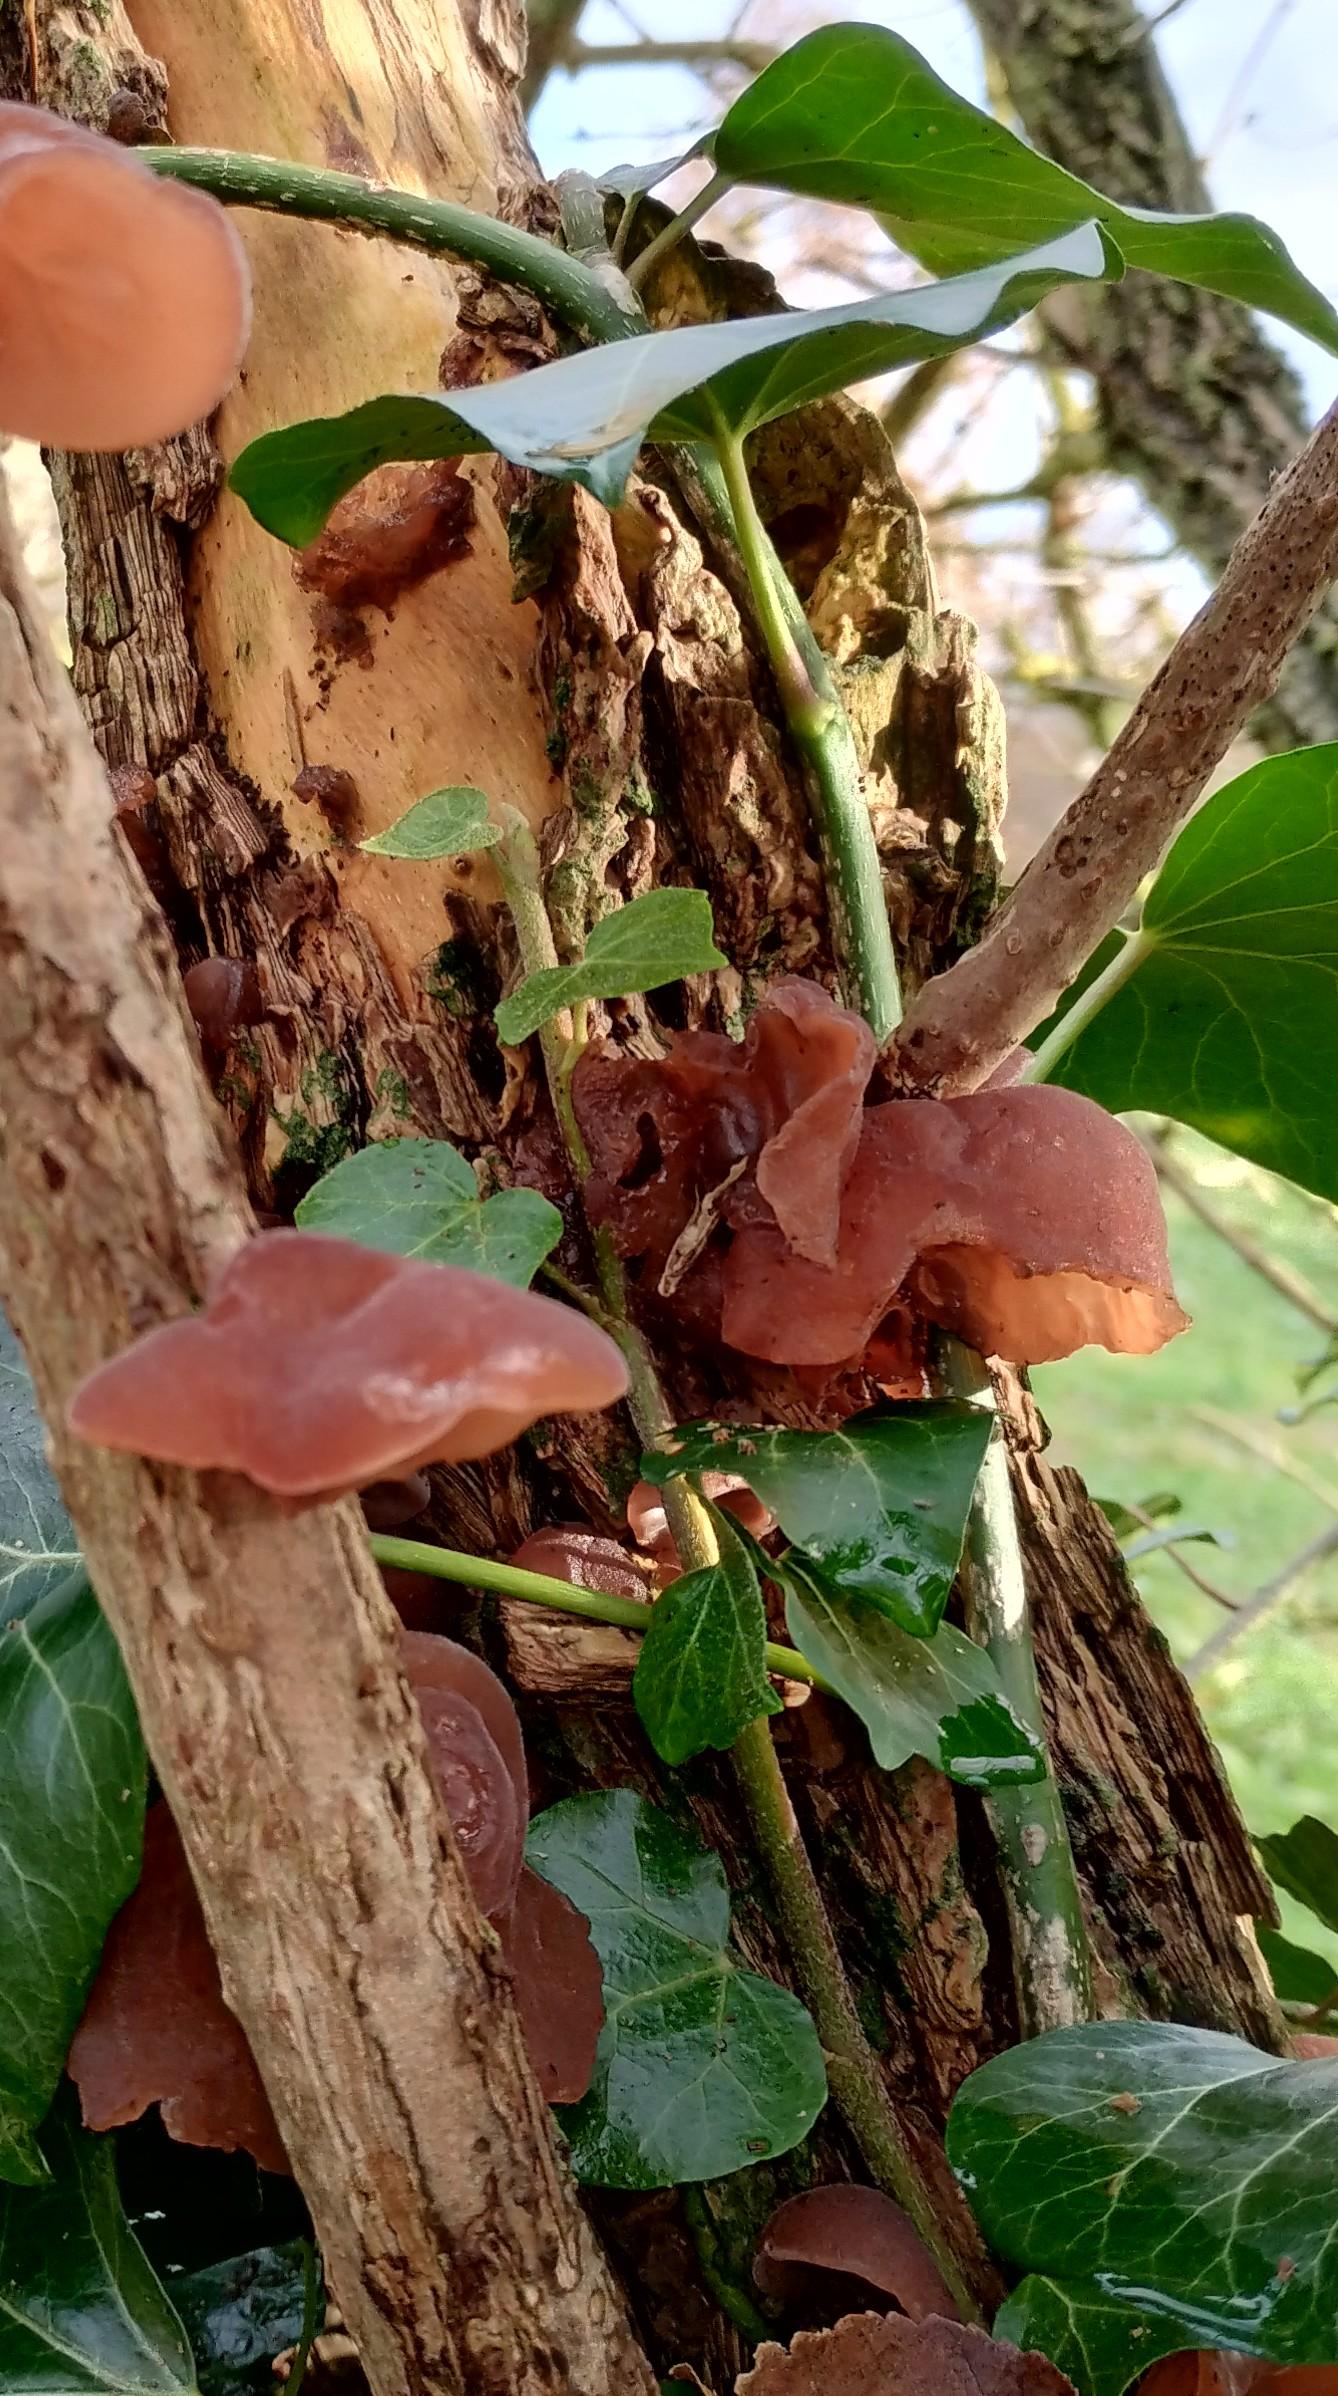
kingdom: Fungi
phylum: Basidiomycota
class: Agaricomycetes
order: Auriculariales
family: Auriculariaceae
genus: Auricularia
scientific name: Auricularia auricula-judae
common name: almindelig judasøre
